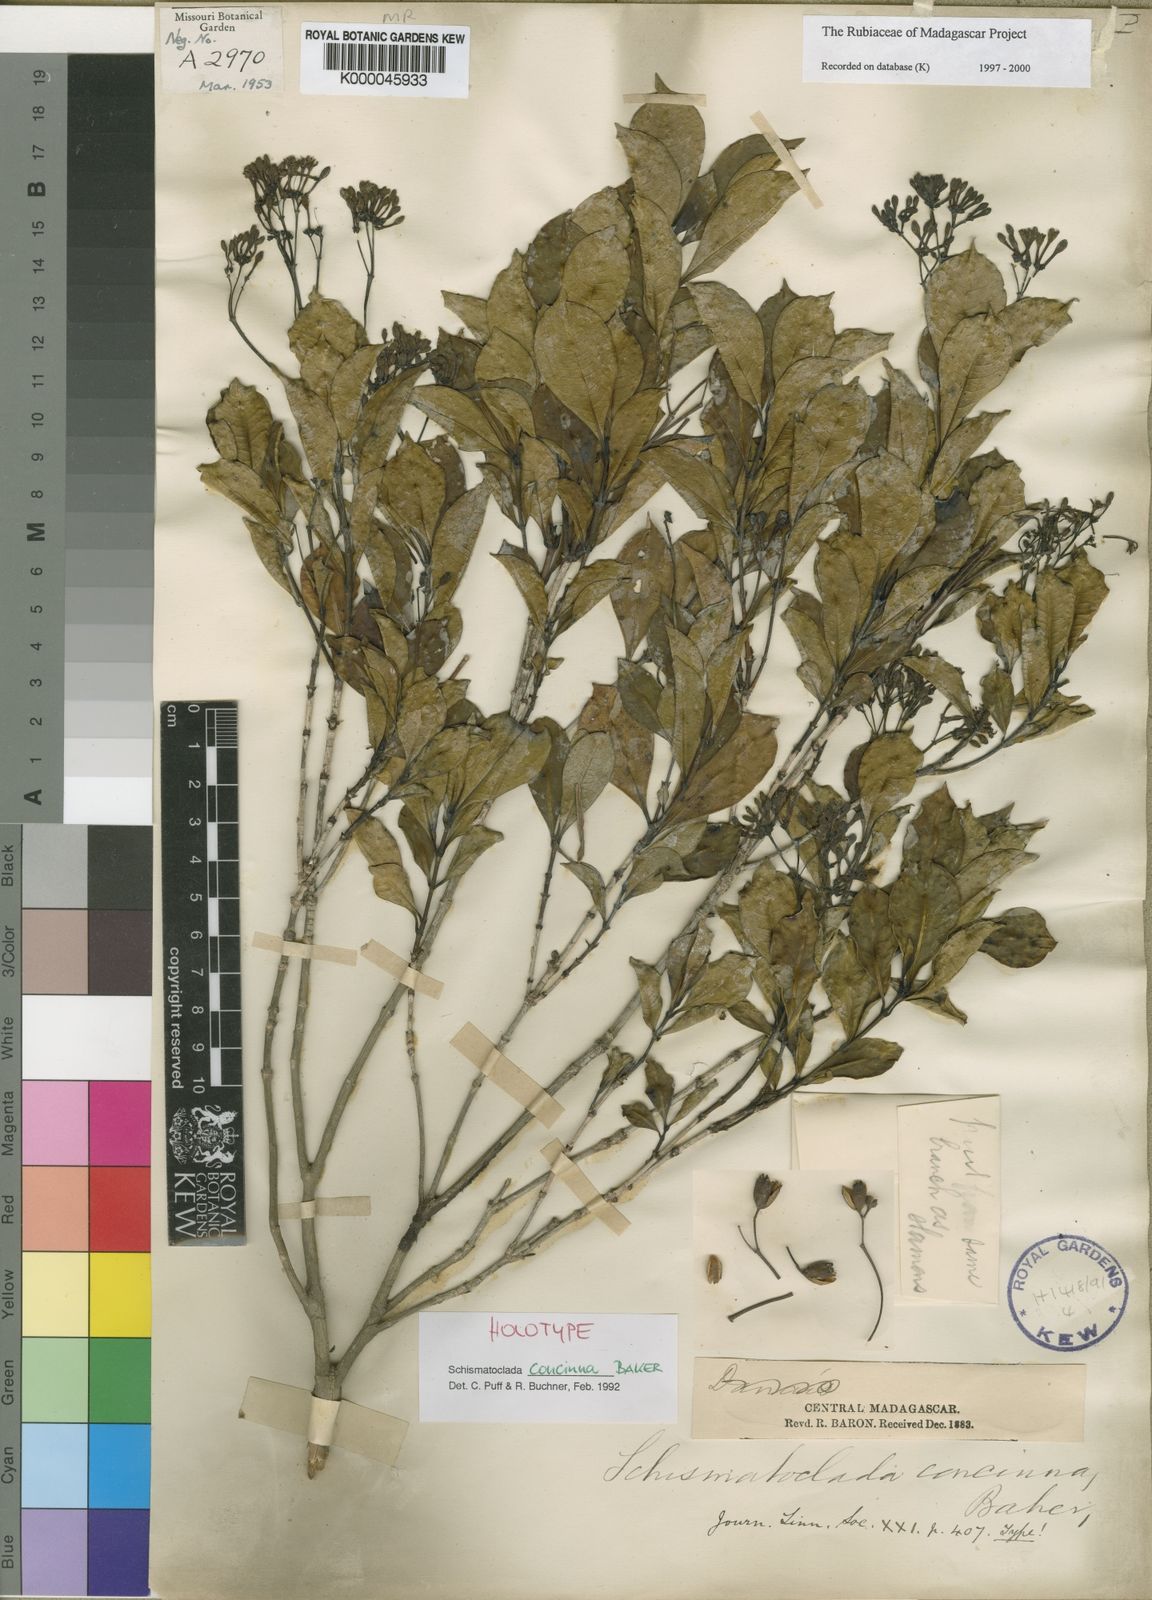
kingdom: Plantae
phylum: Tracheophyta
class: Magnoliopsida
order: Gentianales
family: Rubiaceae
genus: Schismatoclada
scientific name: Schismatoclada concinna
